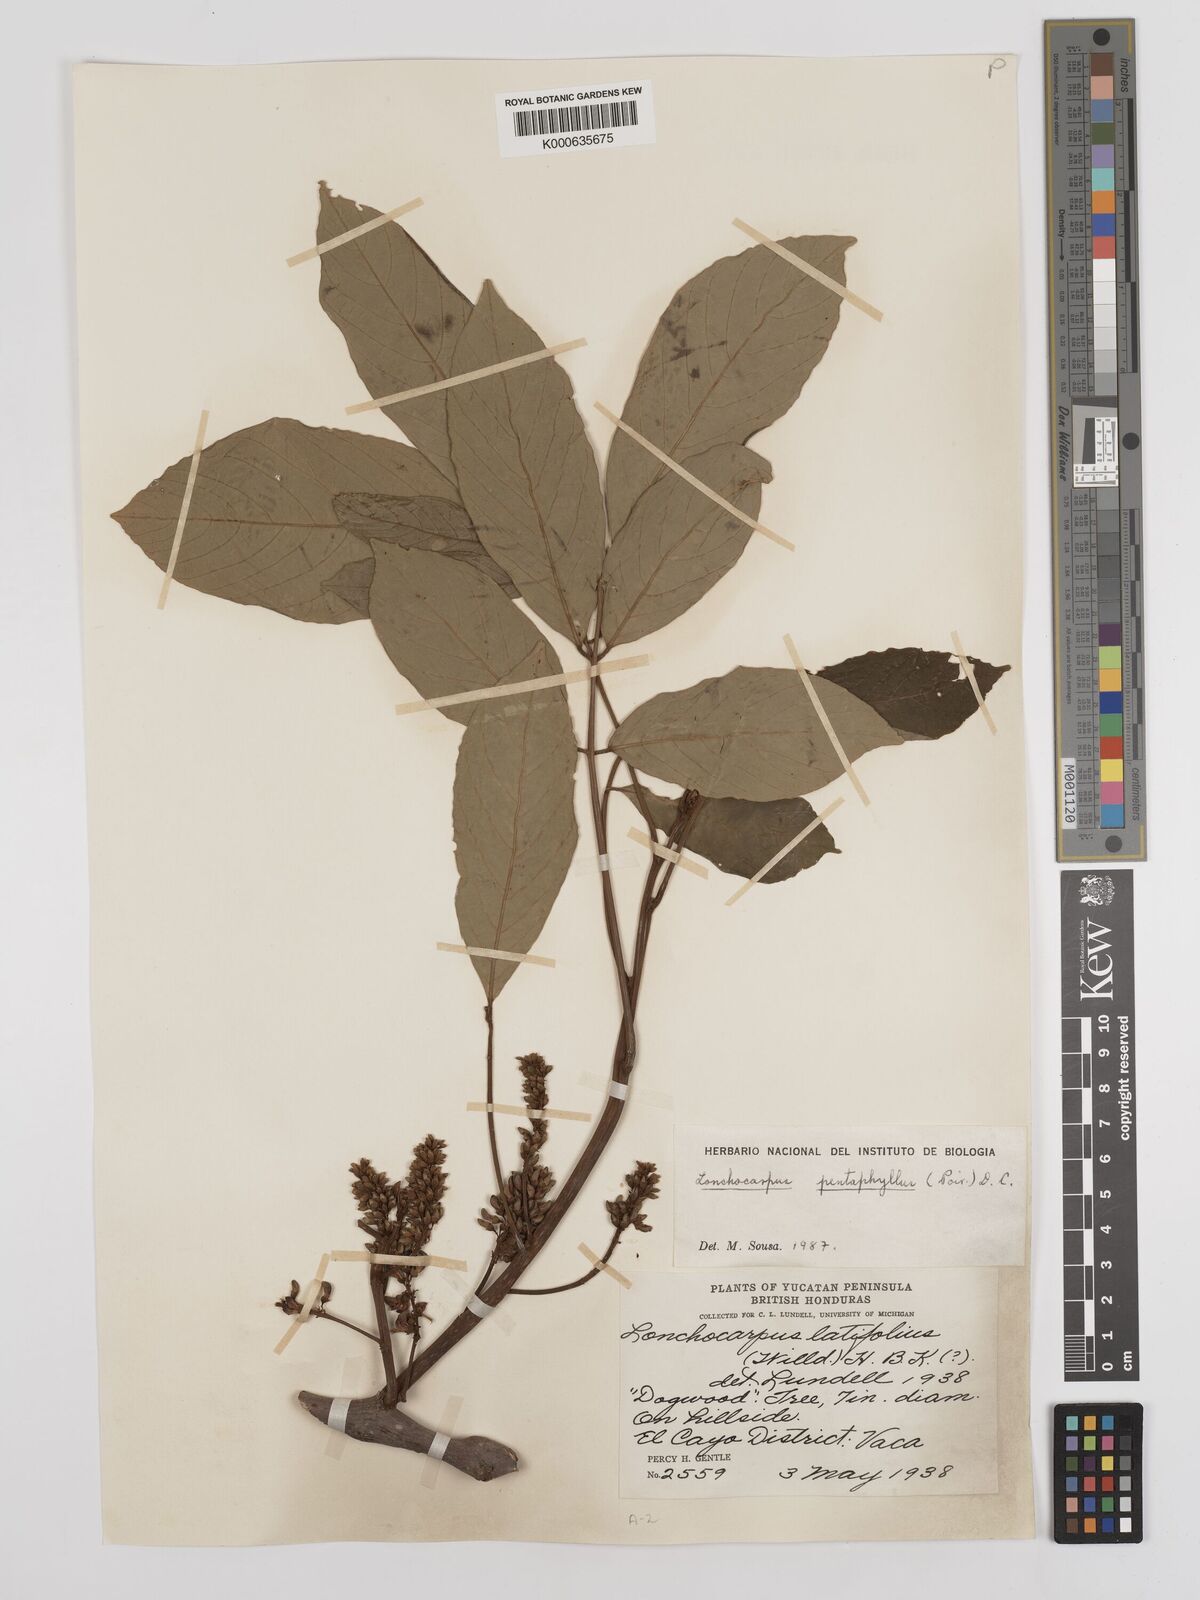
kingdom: Plantae
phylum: Tracheophyta
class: Magnoliopsida
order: Fabales
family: Fabaceae
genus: Lonchocarpus
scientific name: Lonchocarpus
